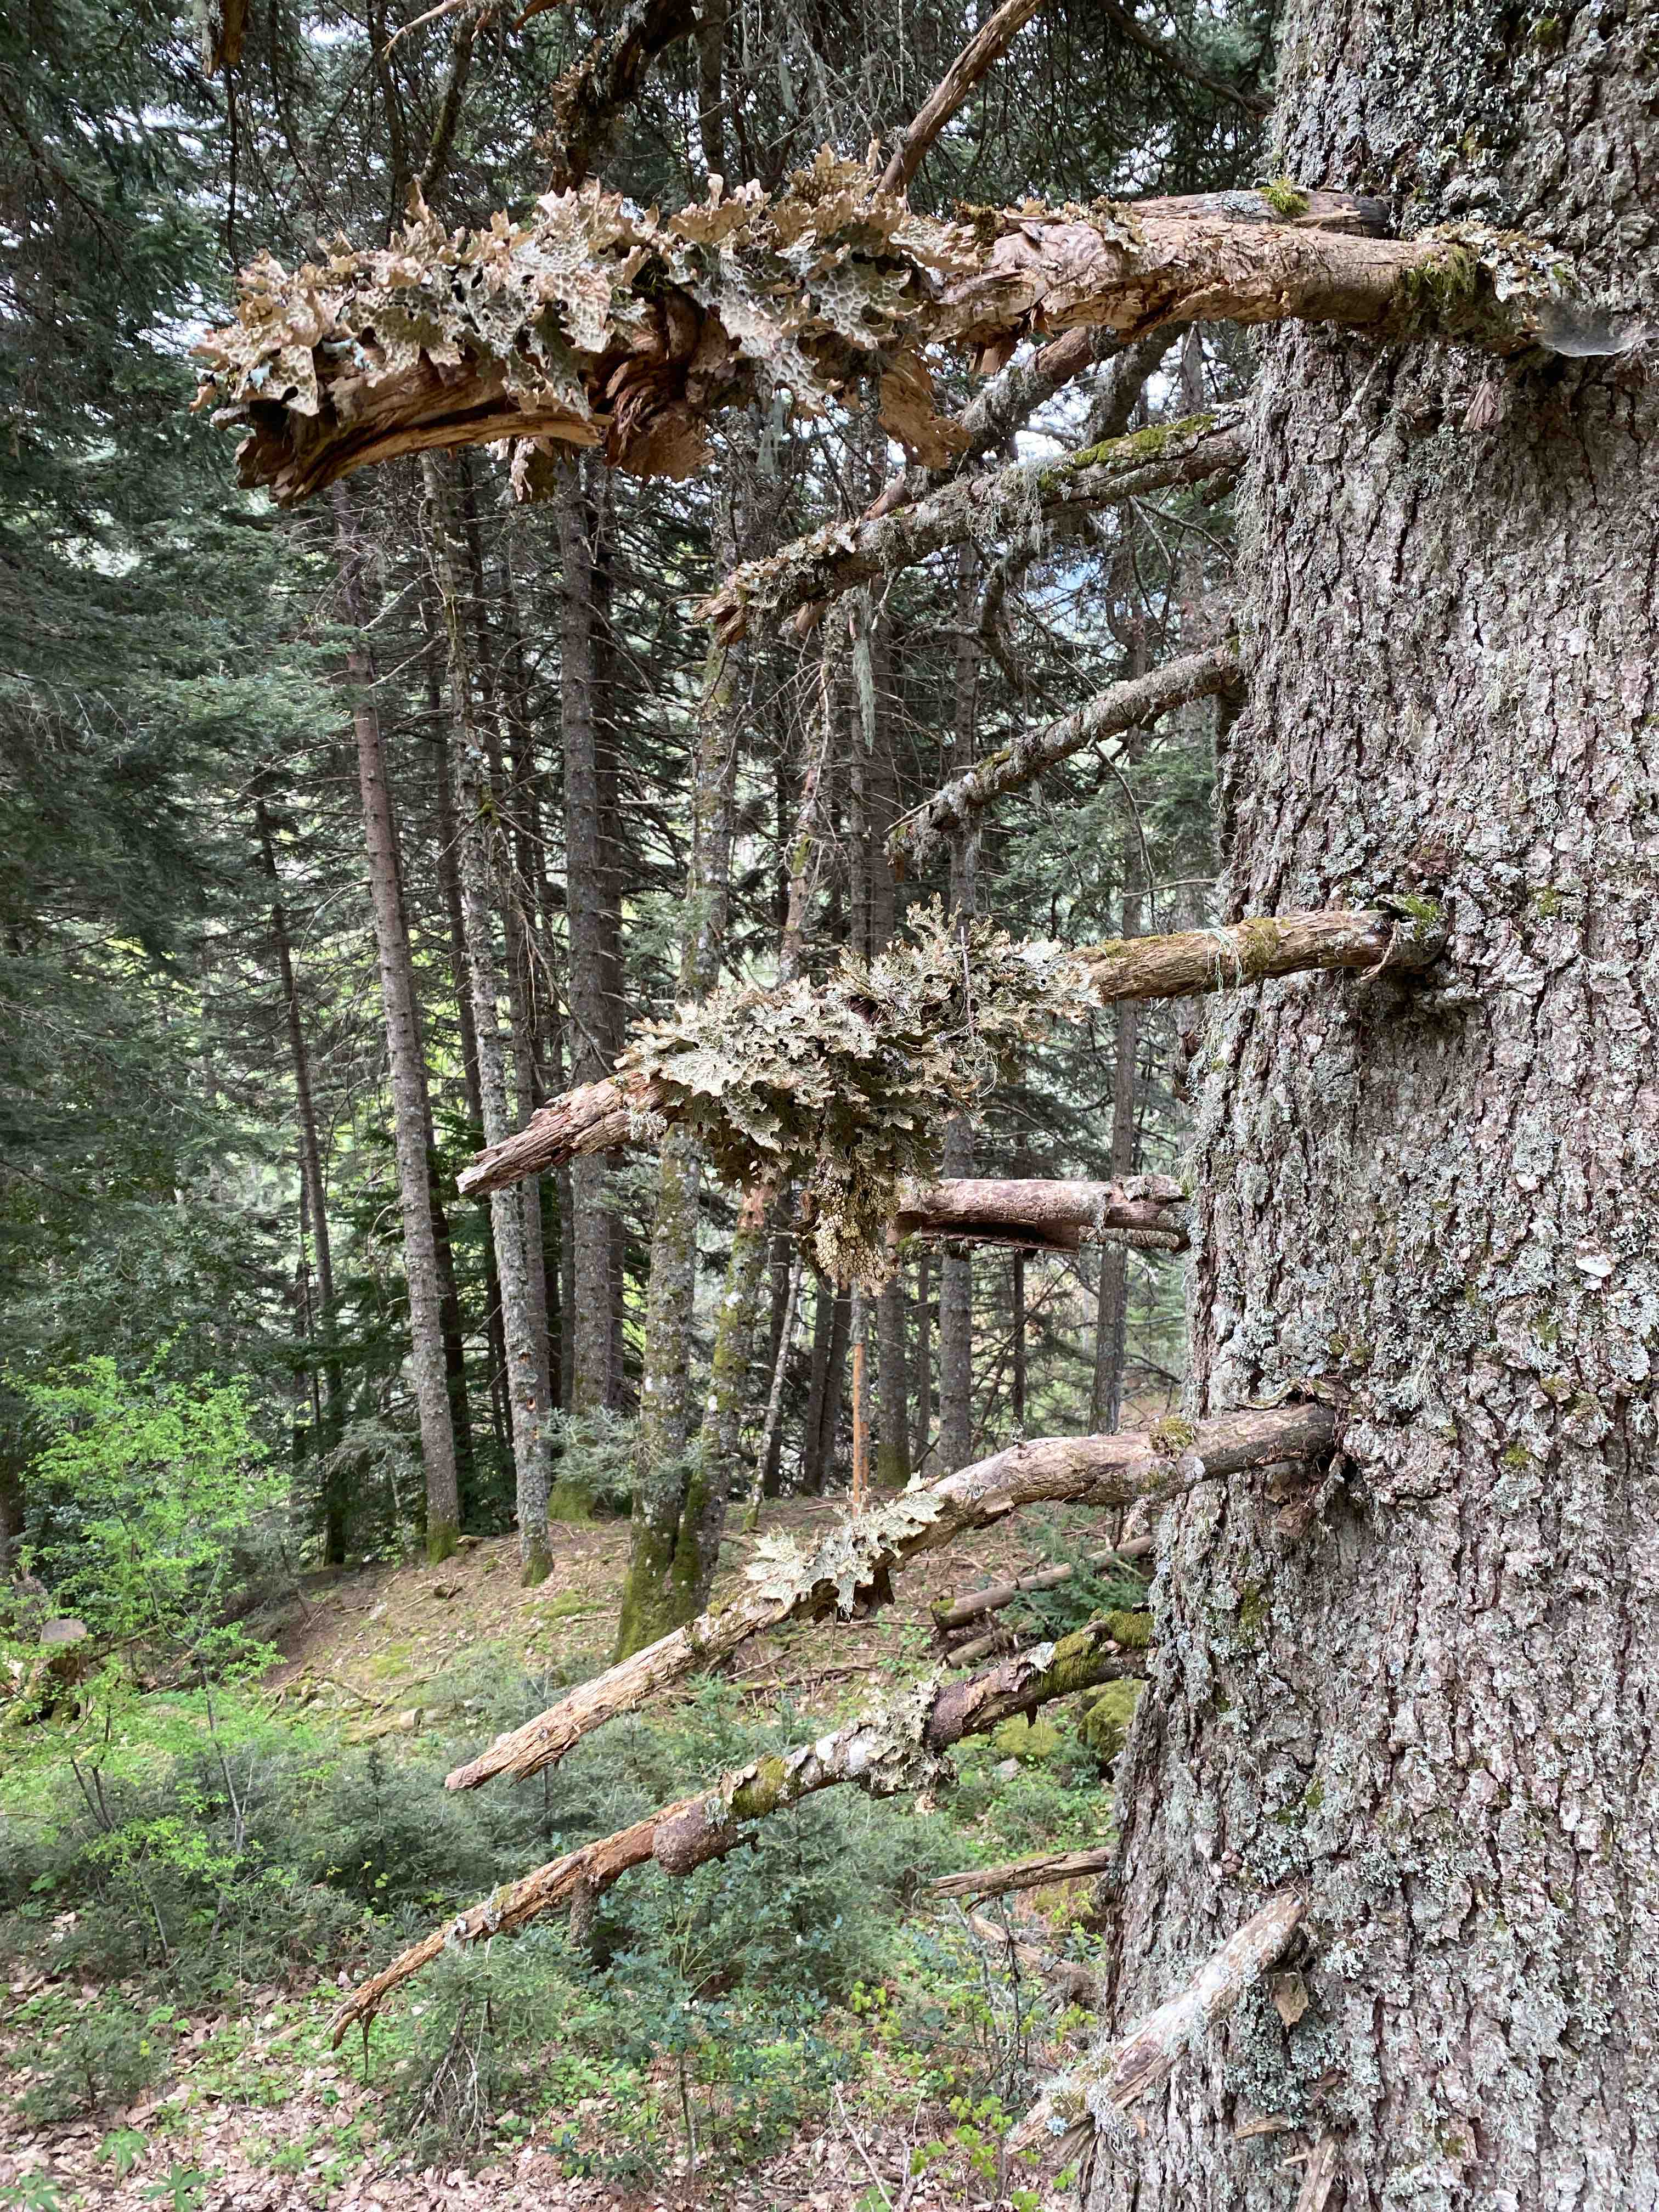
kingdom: Fungi
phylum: Ascomycota
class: Lecanoromycetes
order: Peltigerales
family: Lobariaceae
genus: Lobaria
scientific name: Lobaria pulmonaria
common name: almindelig lungelav
